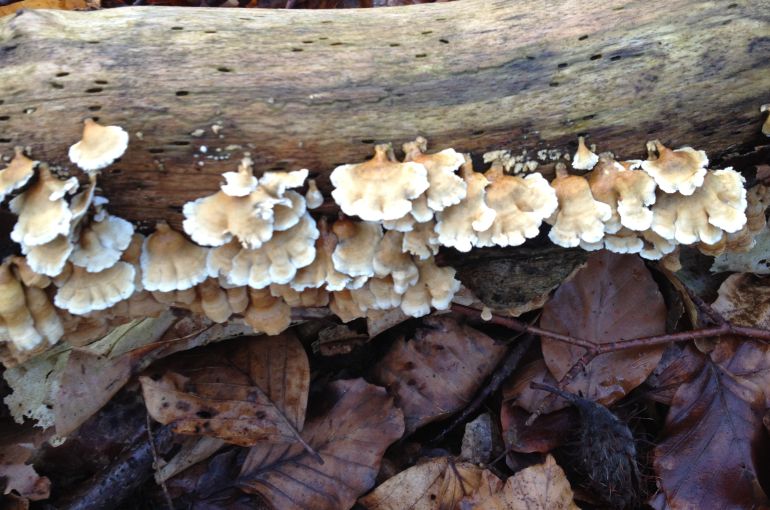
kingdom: Fungi
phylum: Basidiomycota
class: Agaricomycetes
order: Amylocorticiales
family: Amylocorticiaceae
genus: Plicaturopsis
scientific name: Plicaturopsis crispa
